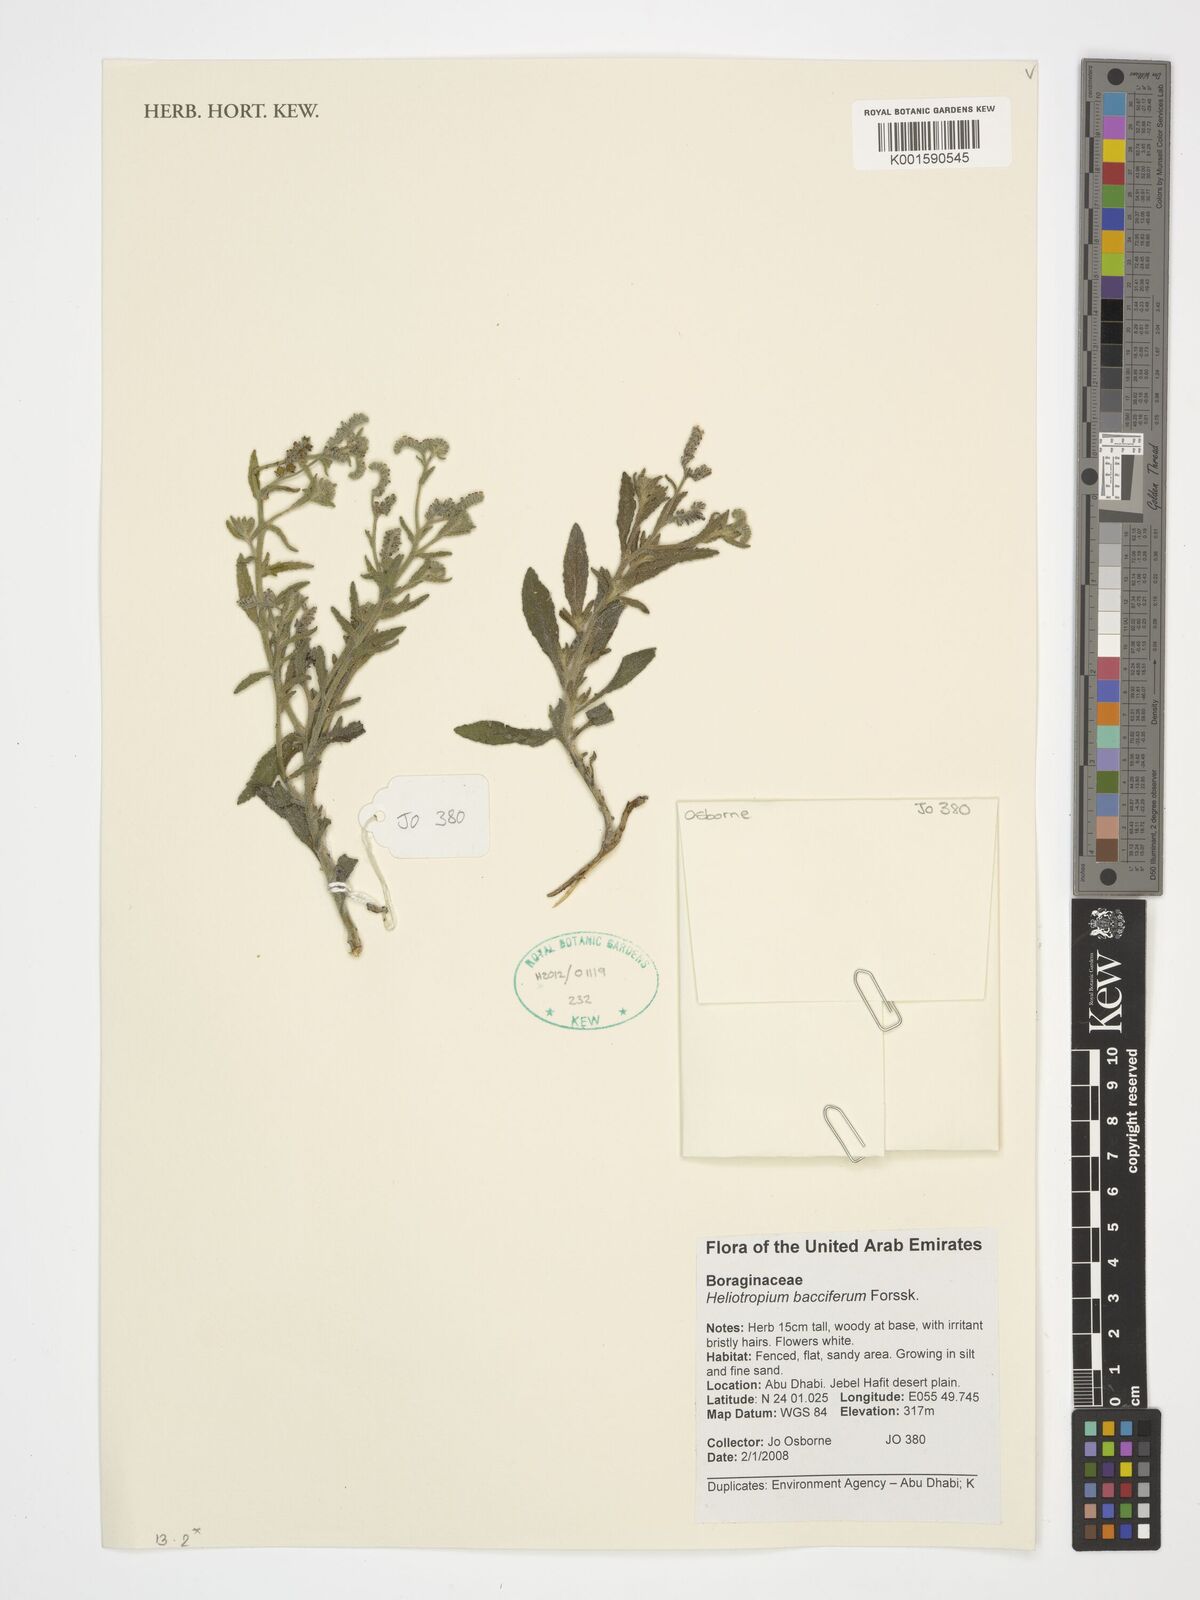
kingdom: Plantae
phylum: Tracheophyta
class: Magnoliopsida
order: Boraginales
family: Heliotropiaceae
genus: Heliotropium
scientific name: Heliotropium bacciferum
